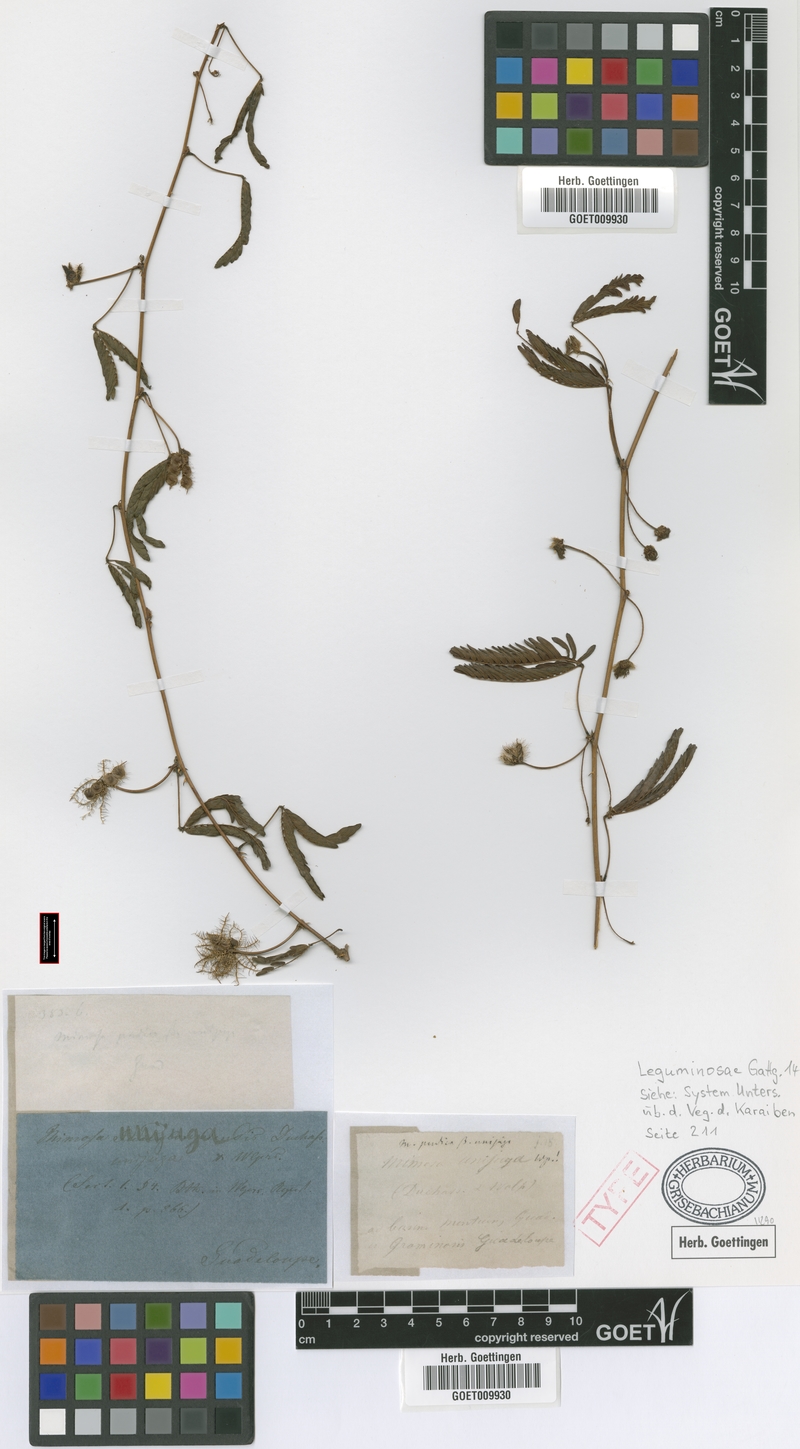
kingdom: Plantae
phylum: Tracheophyta
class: Magnoliopsida
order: Fabales
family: Fabaceae
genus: Mimosa
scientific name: Mimosa pudica
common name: Sensitive plant
